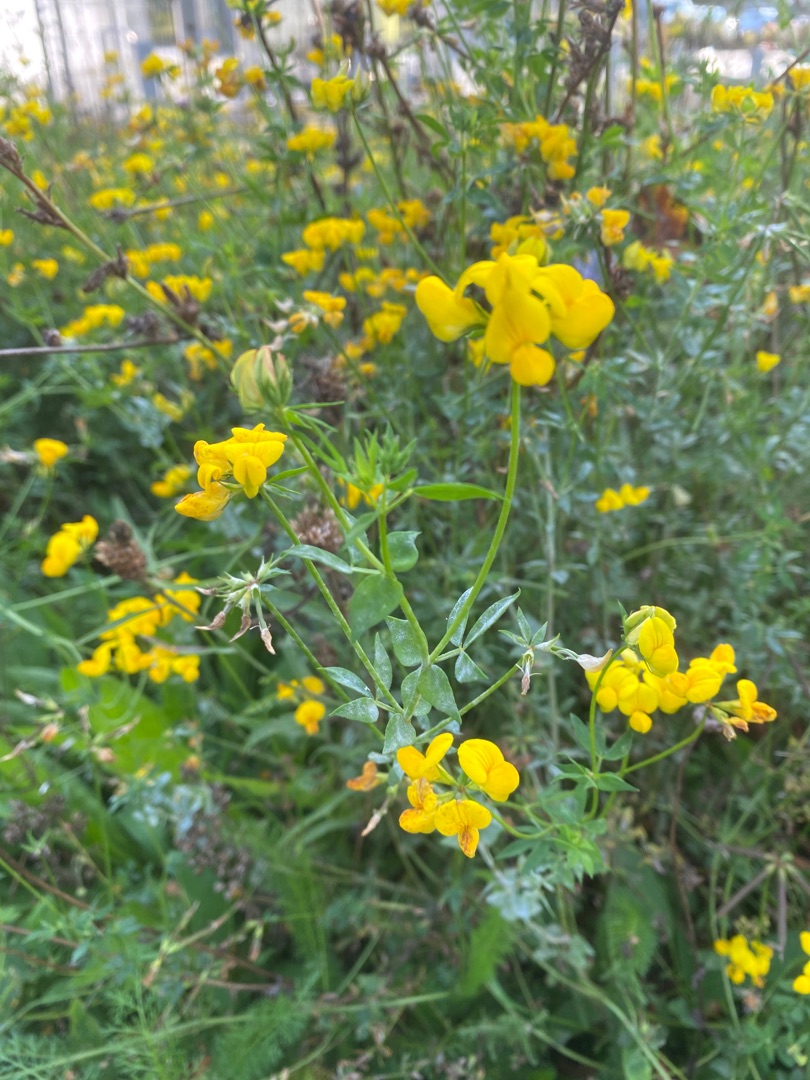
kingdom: Plantae
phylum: Tracheophyta
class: Magnoliopsida
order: Fabales
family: Fabaceae
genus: Lotus
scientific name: Lotus corniculatus
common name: Almindelig kællingetand
